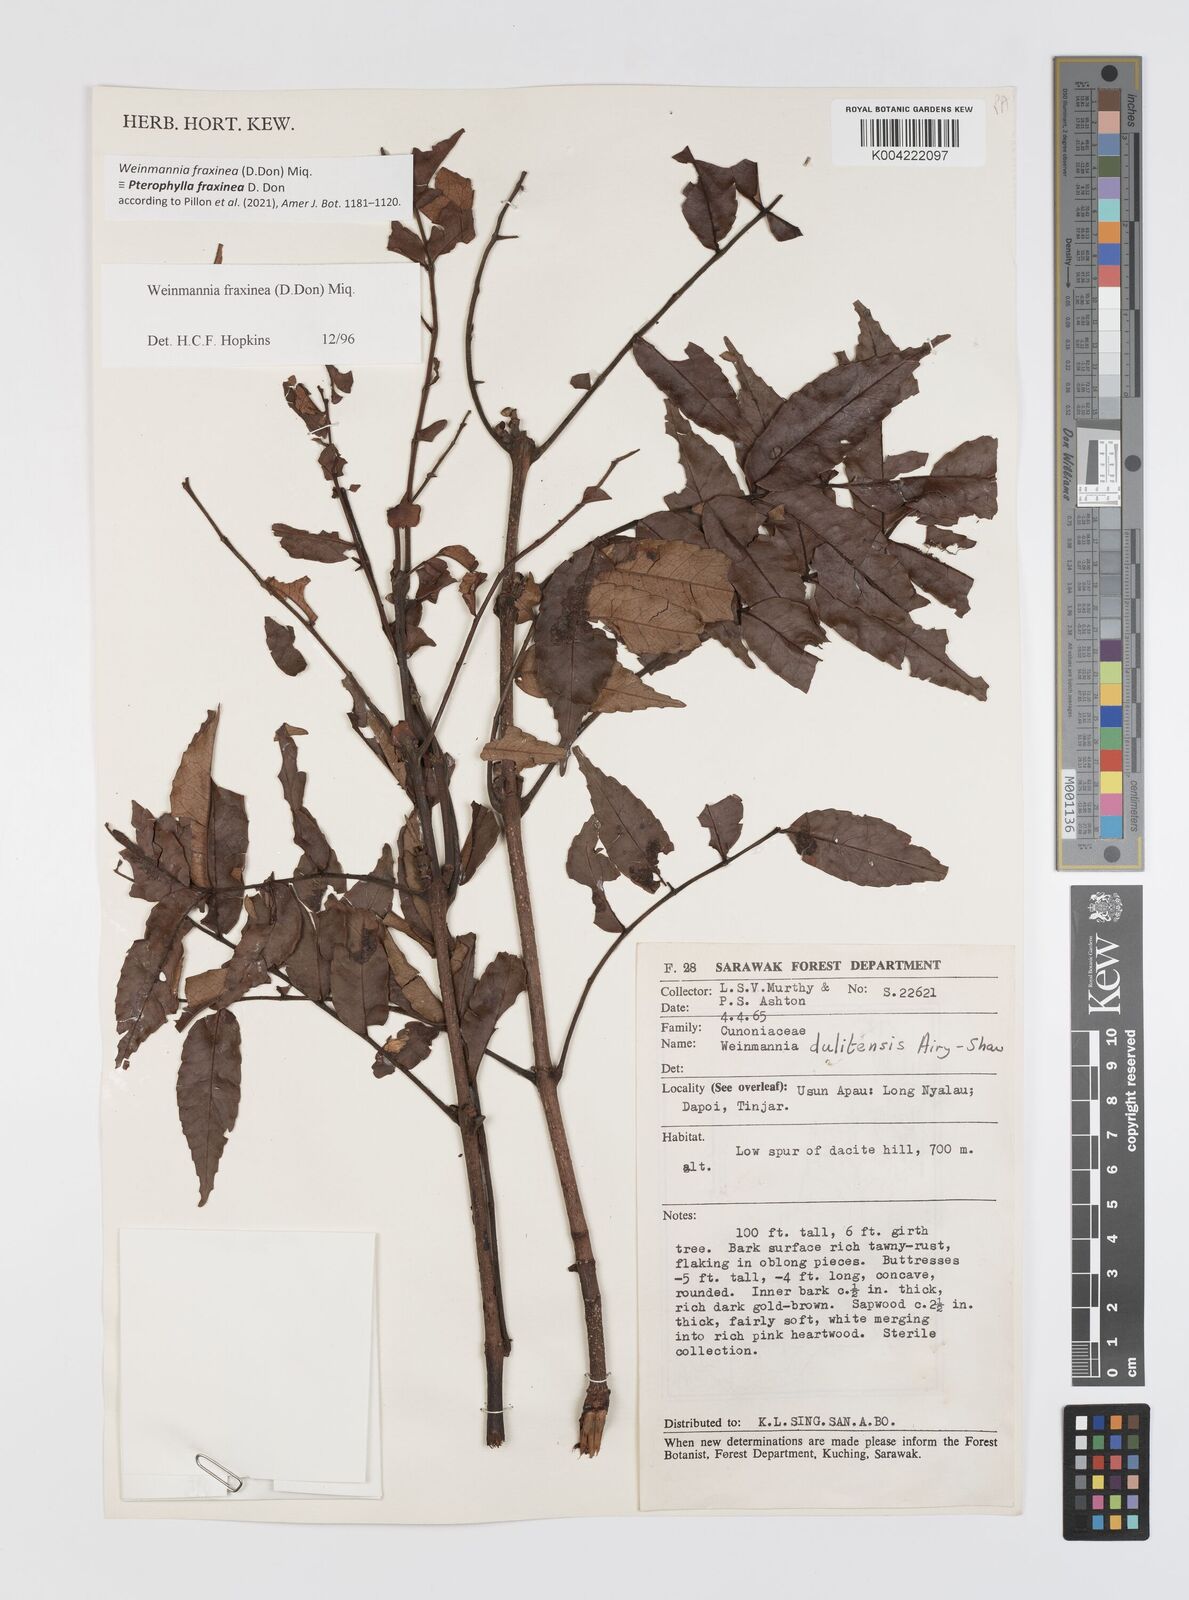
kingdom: Plantae
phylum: Tracheophyta
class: Magnoliopsida
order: Oxalidales
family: Cunoniaceae
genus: Pterophylla
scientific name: Pterophylla fraxinea
